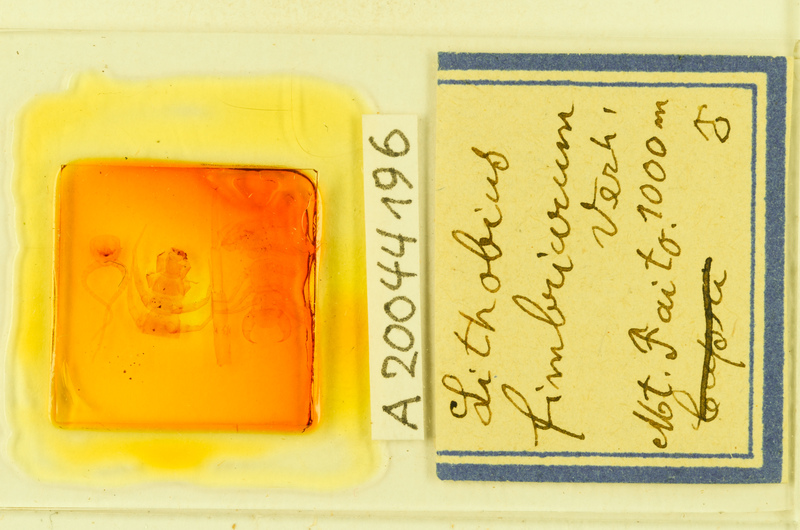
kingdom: Animalia
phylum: Arthropoda
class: Chilopoda
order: Lithobiomorpha
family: Lithobiidae
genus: Lithobius
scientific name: Lithobius erythrocephalus
